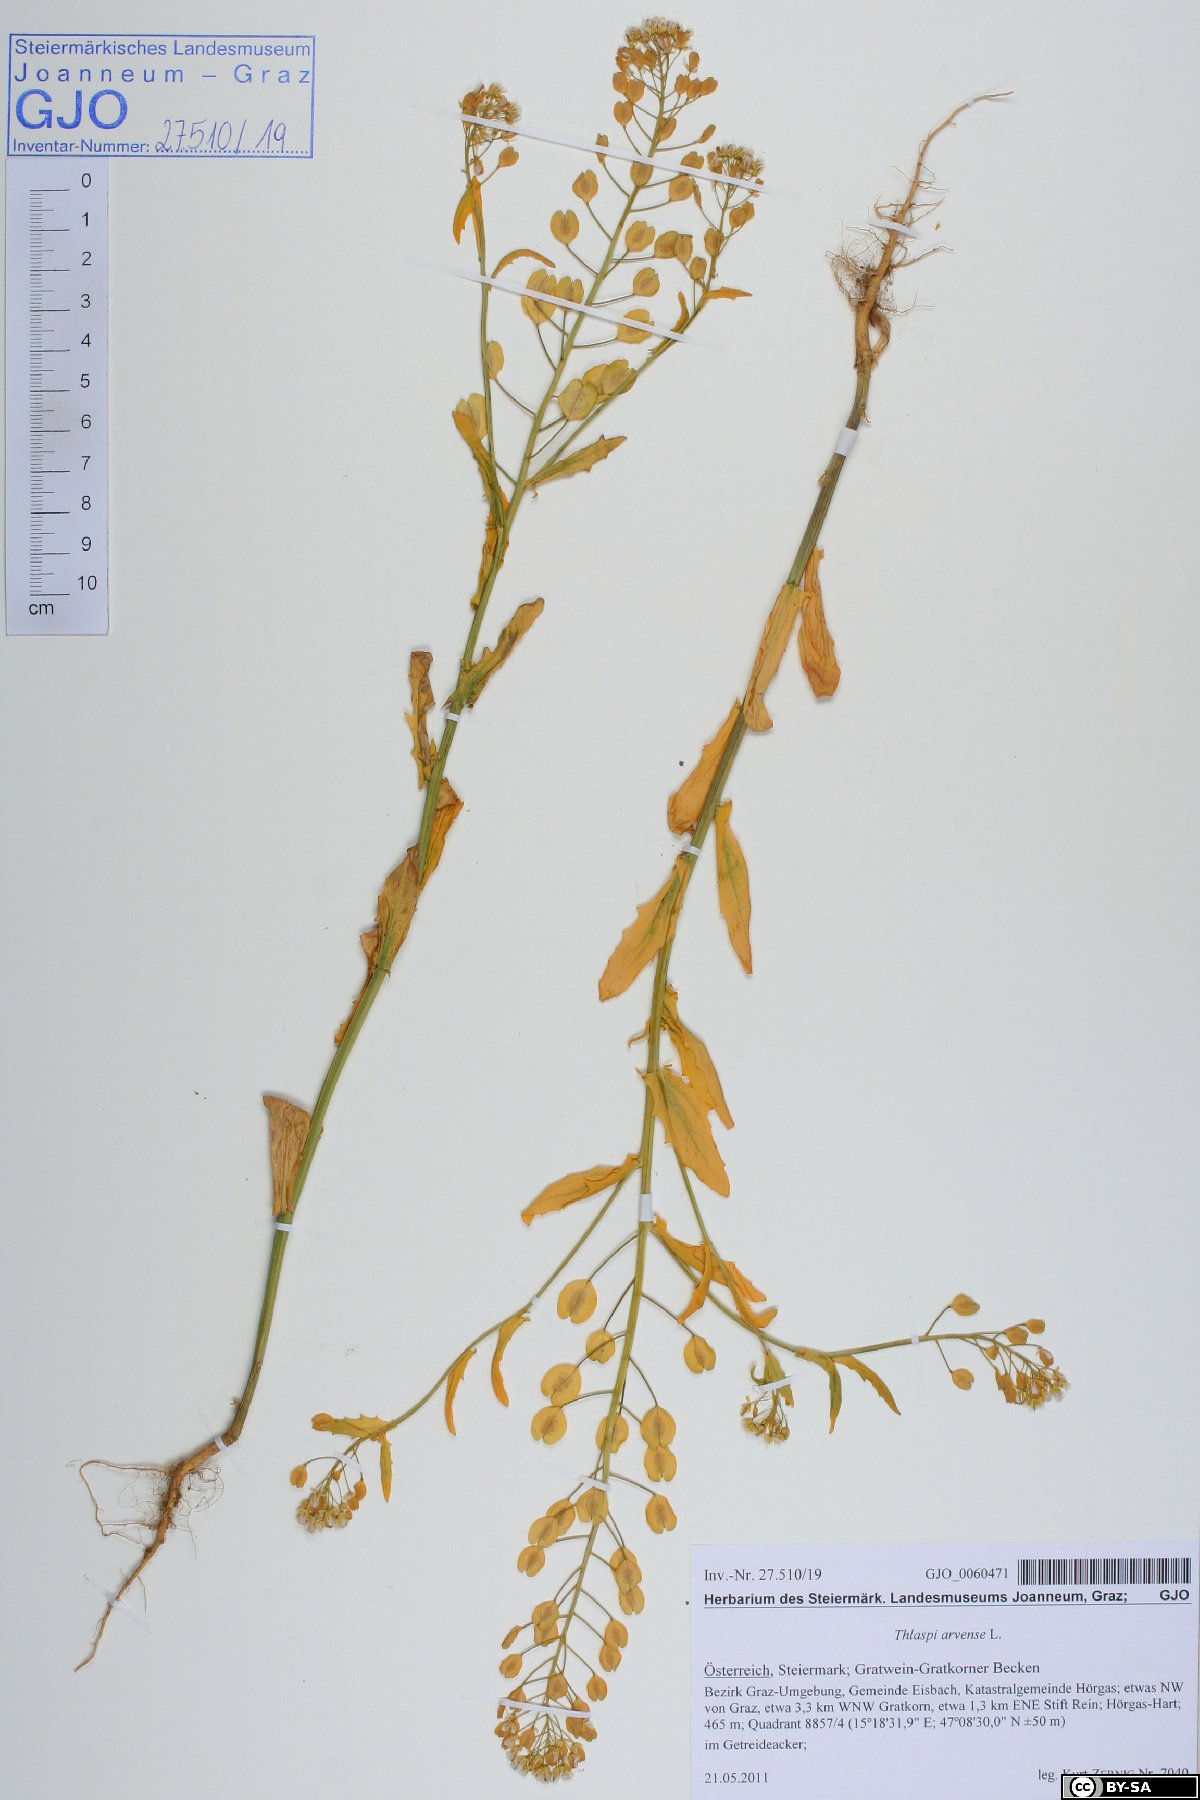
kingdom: Plantae
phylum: Tracheophyta
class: Magnoliopsida
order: Brassicales
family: Brassicaceae
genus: Thlaspi
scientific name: Thlaspi arvense
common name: Field pennycress
